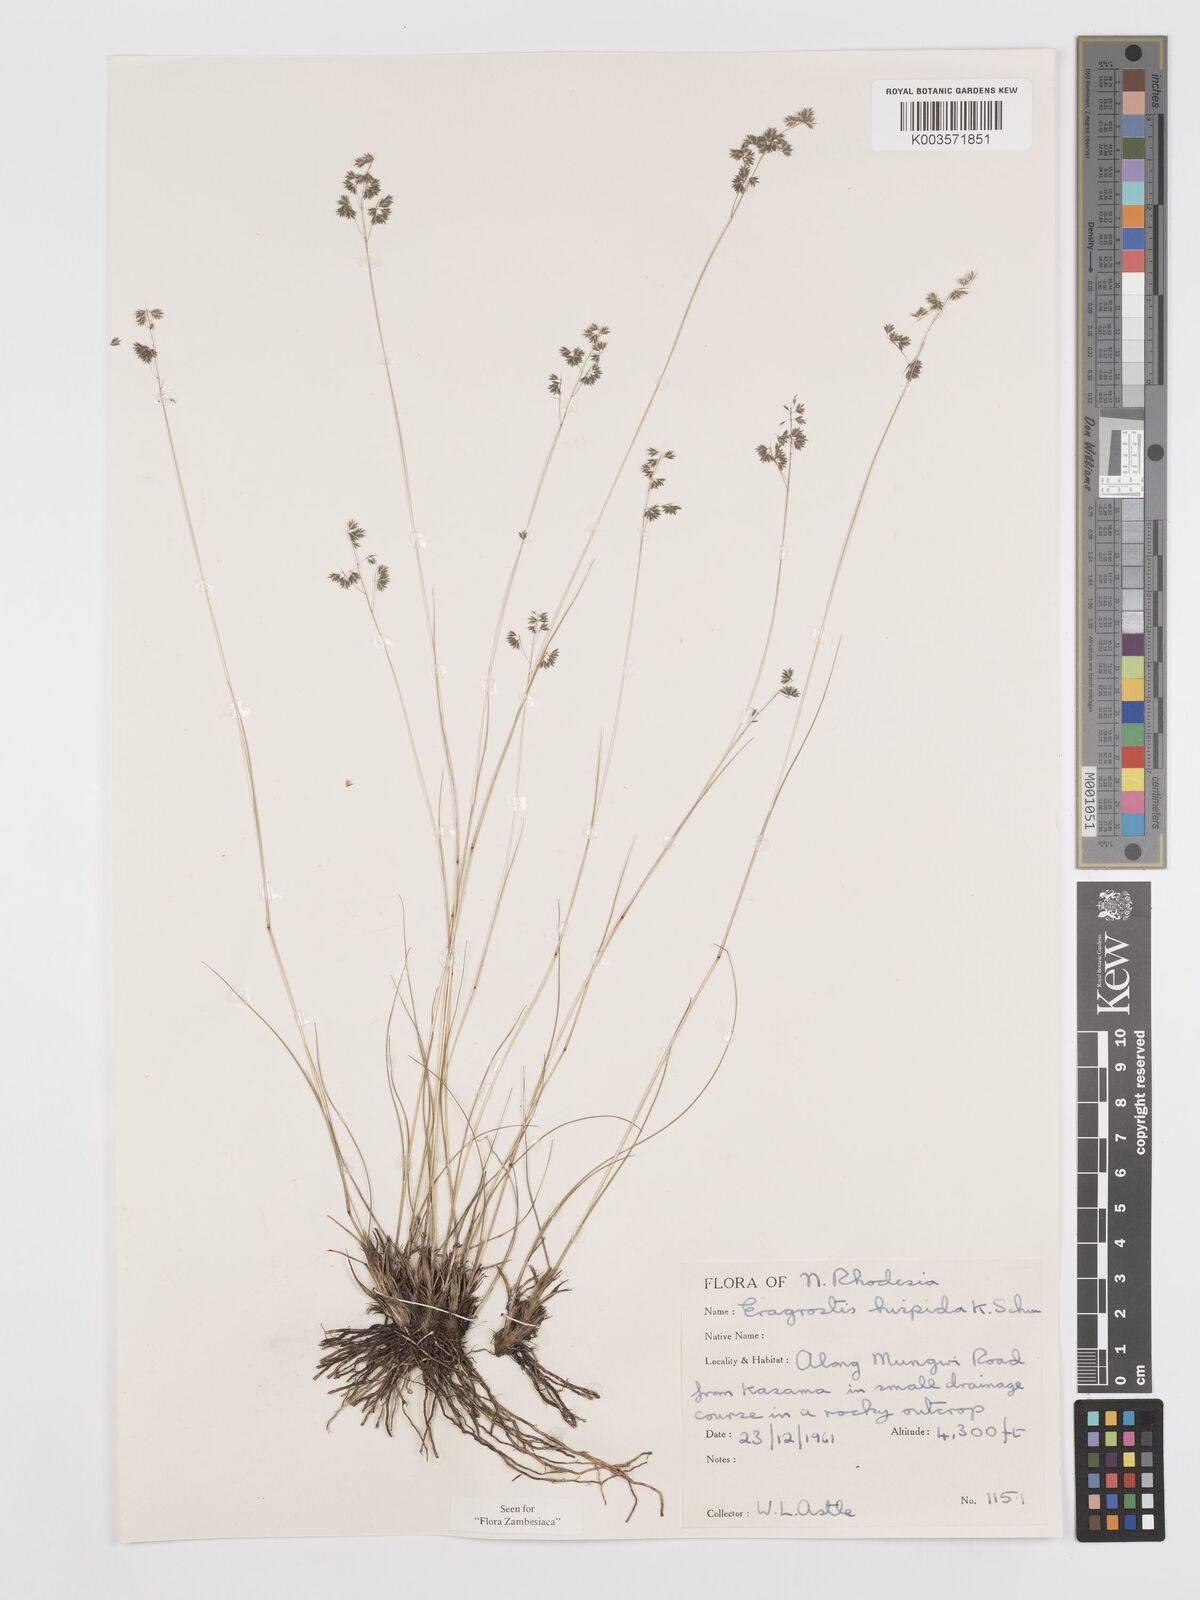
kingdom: Plantae
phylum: Tracheophyta
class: Liliopsida
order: Poales
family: Poaceae
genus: Eragrostis
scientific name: Eragrostis hispida
